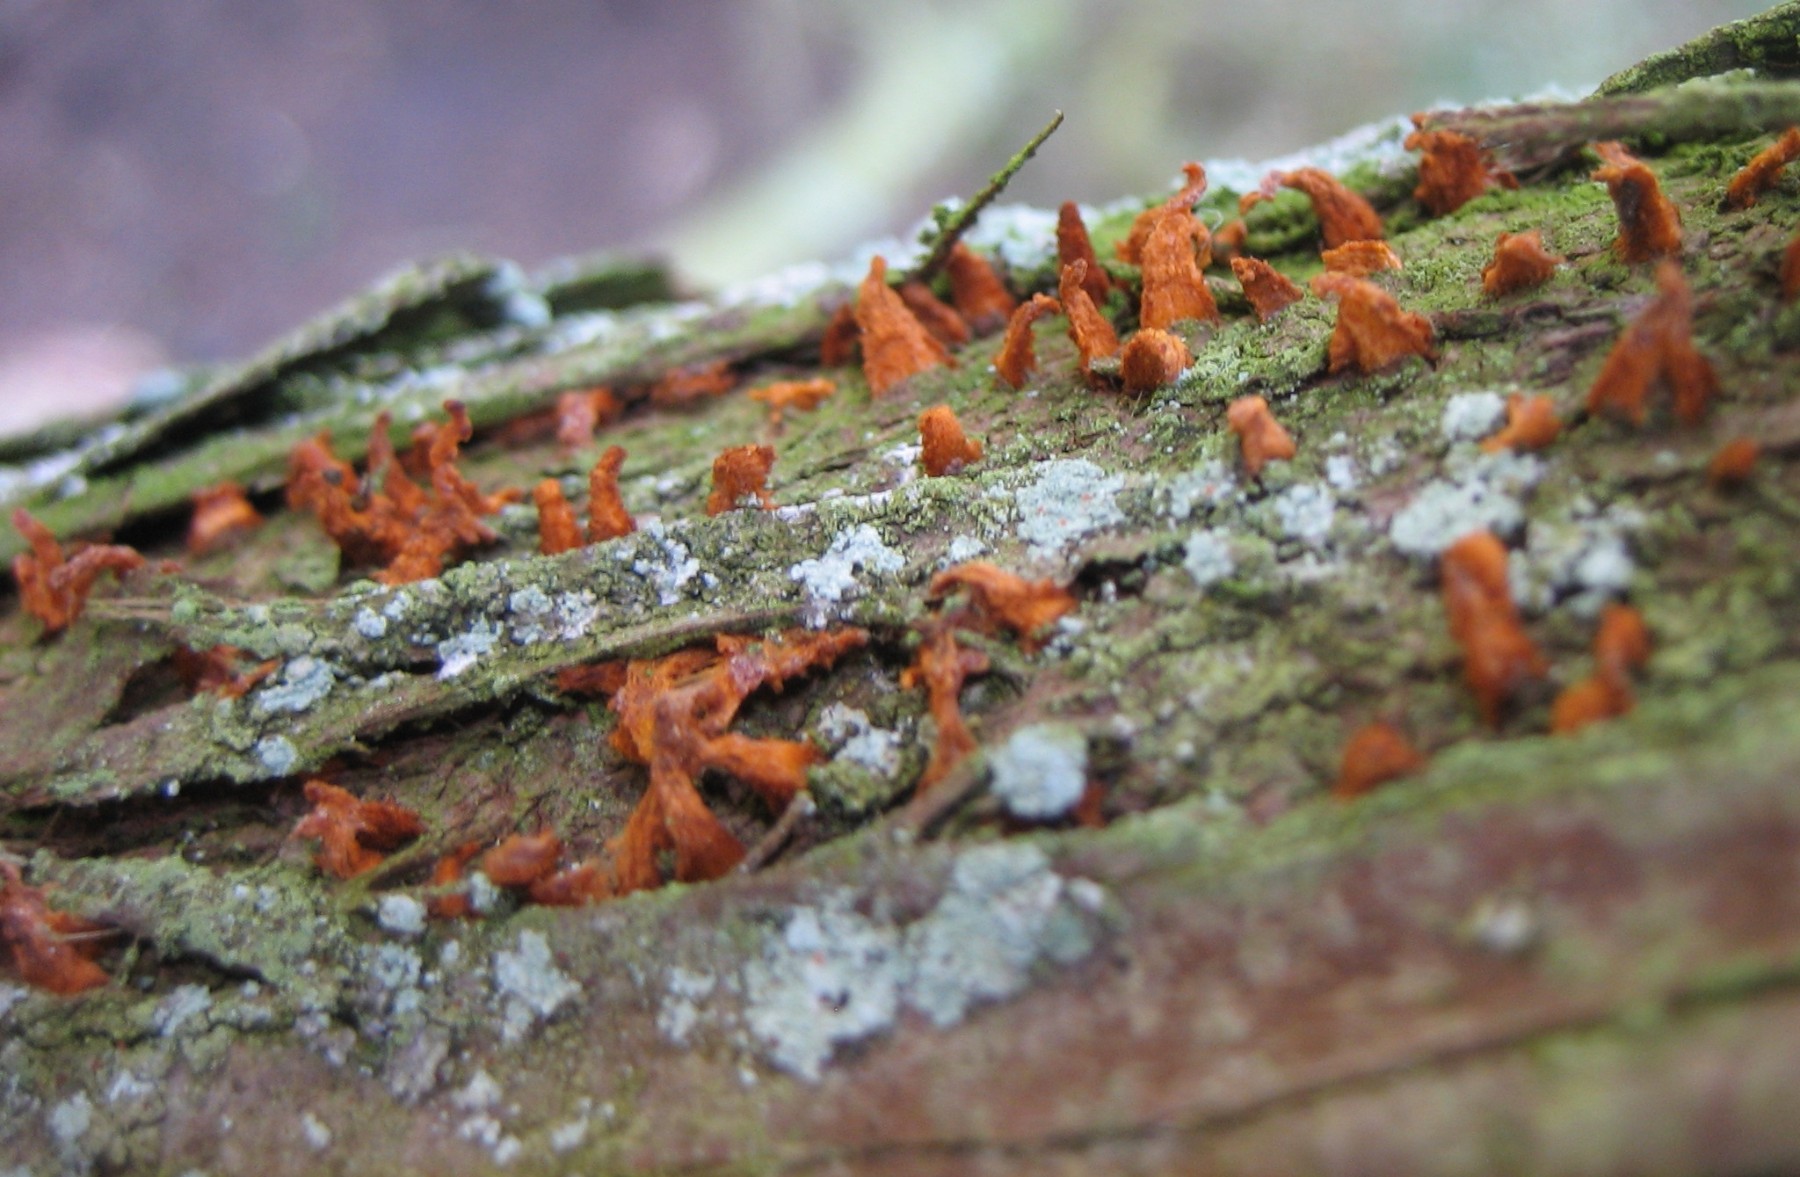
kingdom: Fungi
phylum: Basidiomycota
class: Pucciniomycetes
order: Pucciniales
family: Gymnosporangiaceae
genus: Gymnosporangium
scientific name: Gymnosporangium clavariiforme
